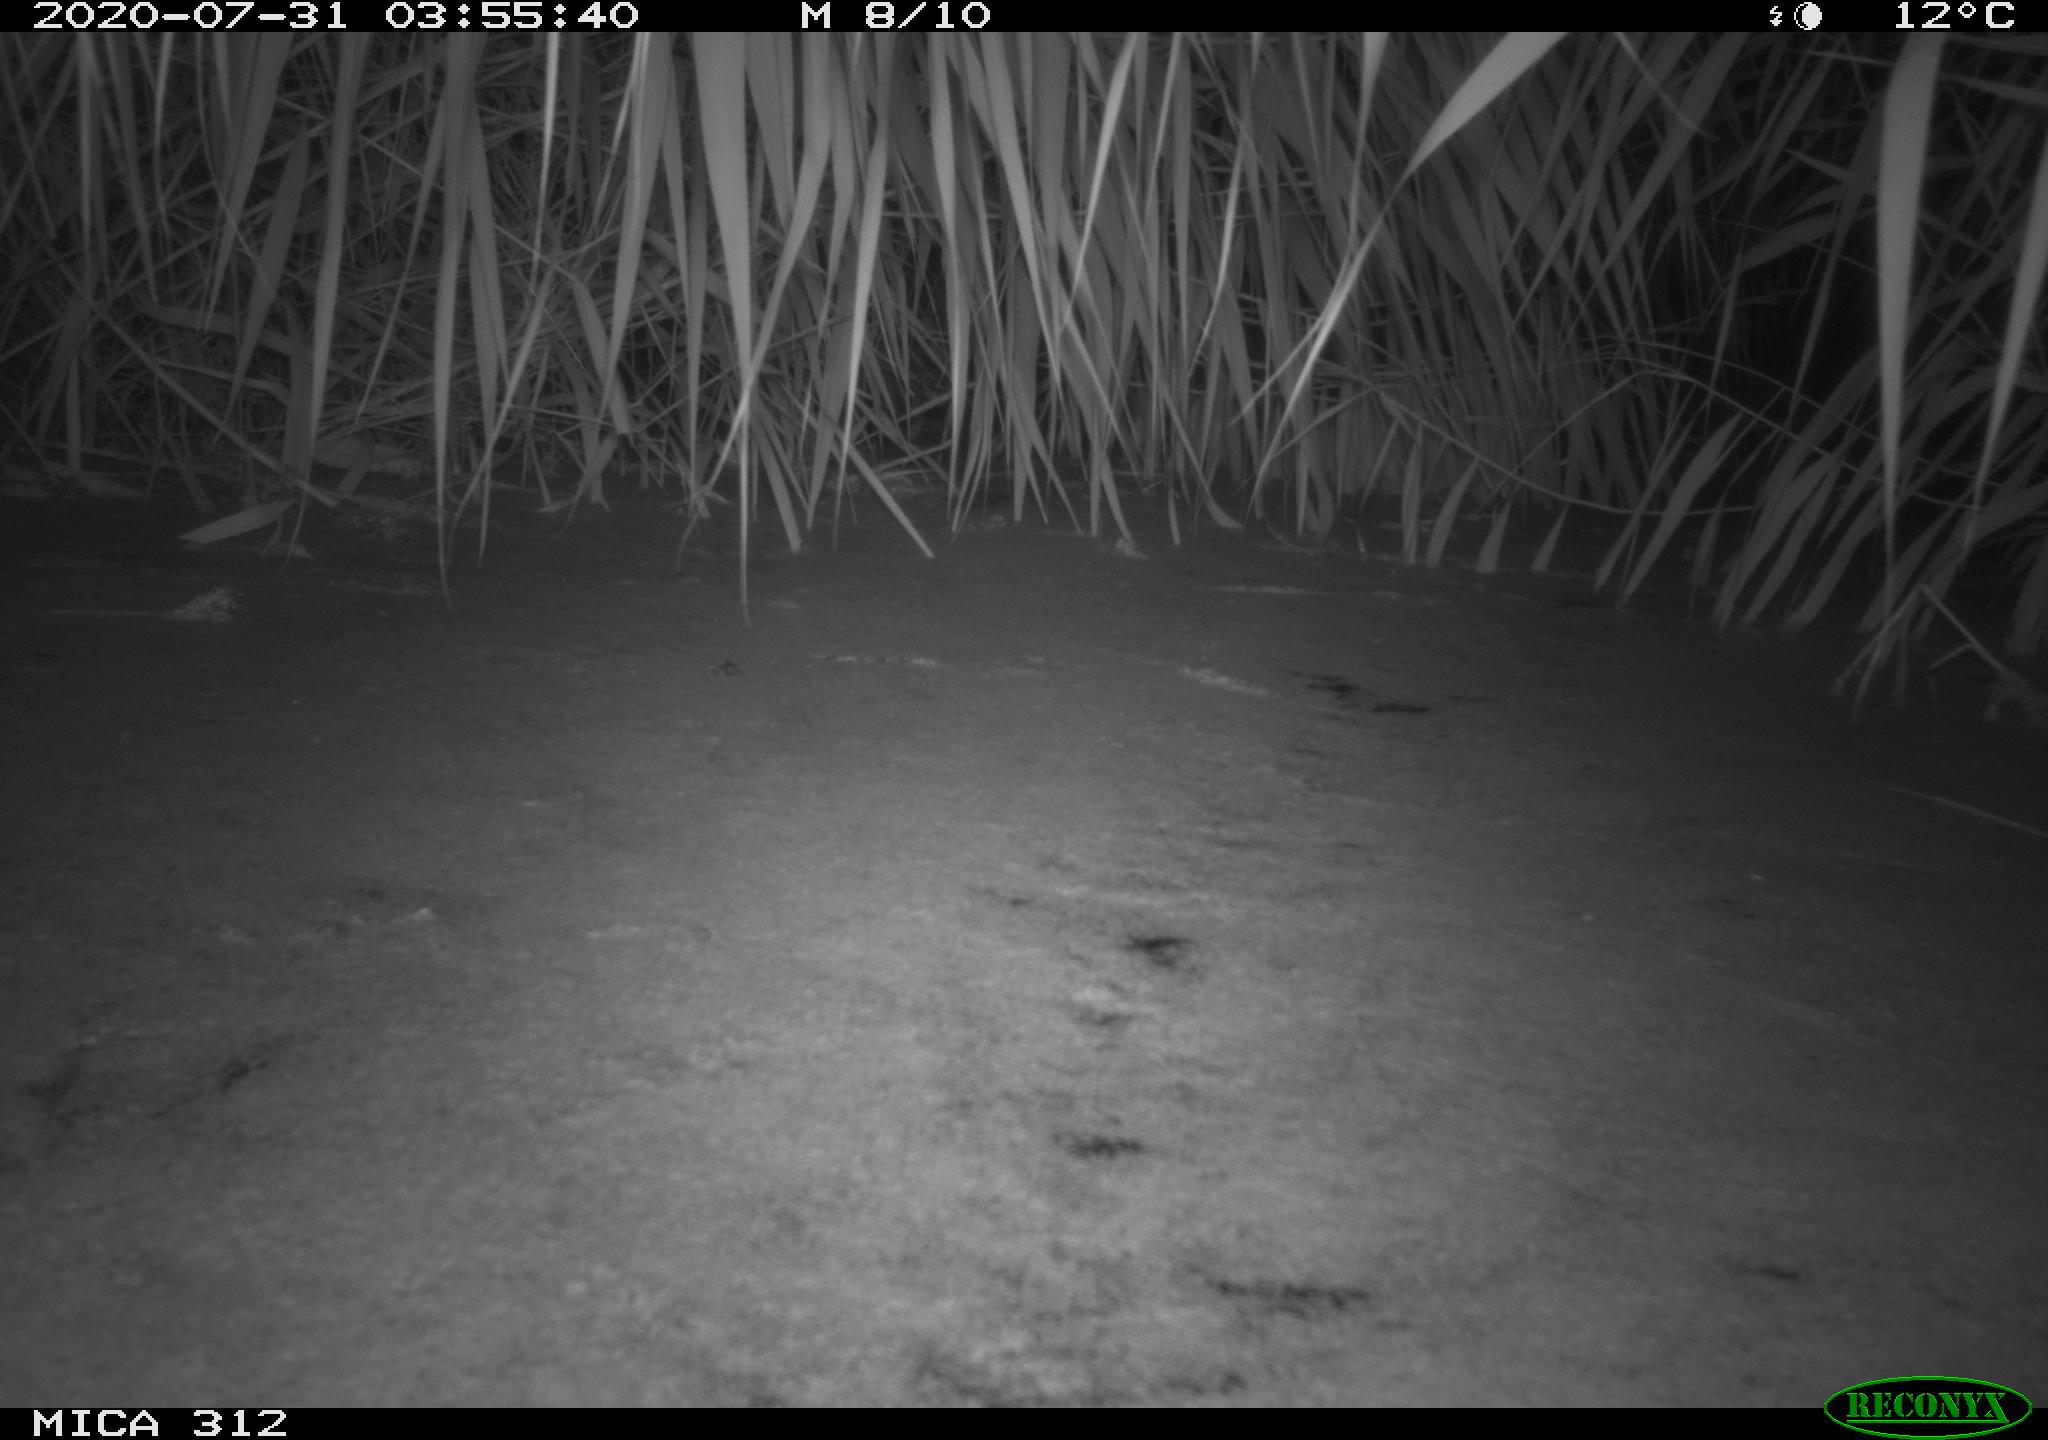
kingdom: Animalia
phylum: Chordata
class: Mammalia
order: Rodentia
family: Muridae
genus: Rattus
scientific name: Rattus norvegicus
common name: Brown rat
